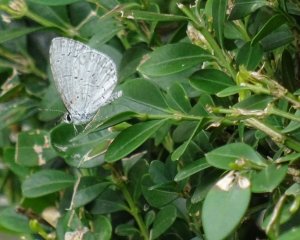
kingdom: Animalia
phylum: Arthropoda
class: Insecta
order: Lepidoptera
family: Lycaenidae
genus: Cyaniris
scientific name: Cyaniris neglecta
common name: Summer Azure
